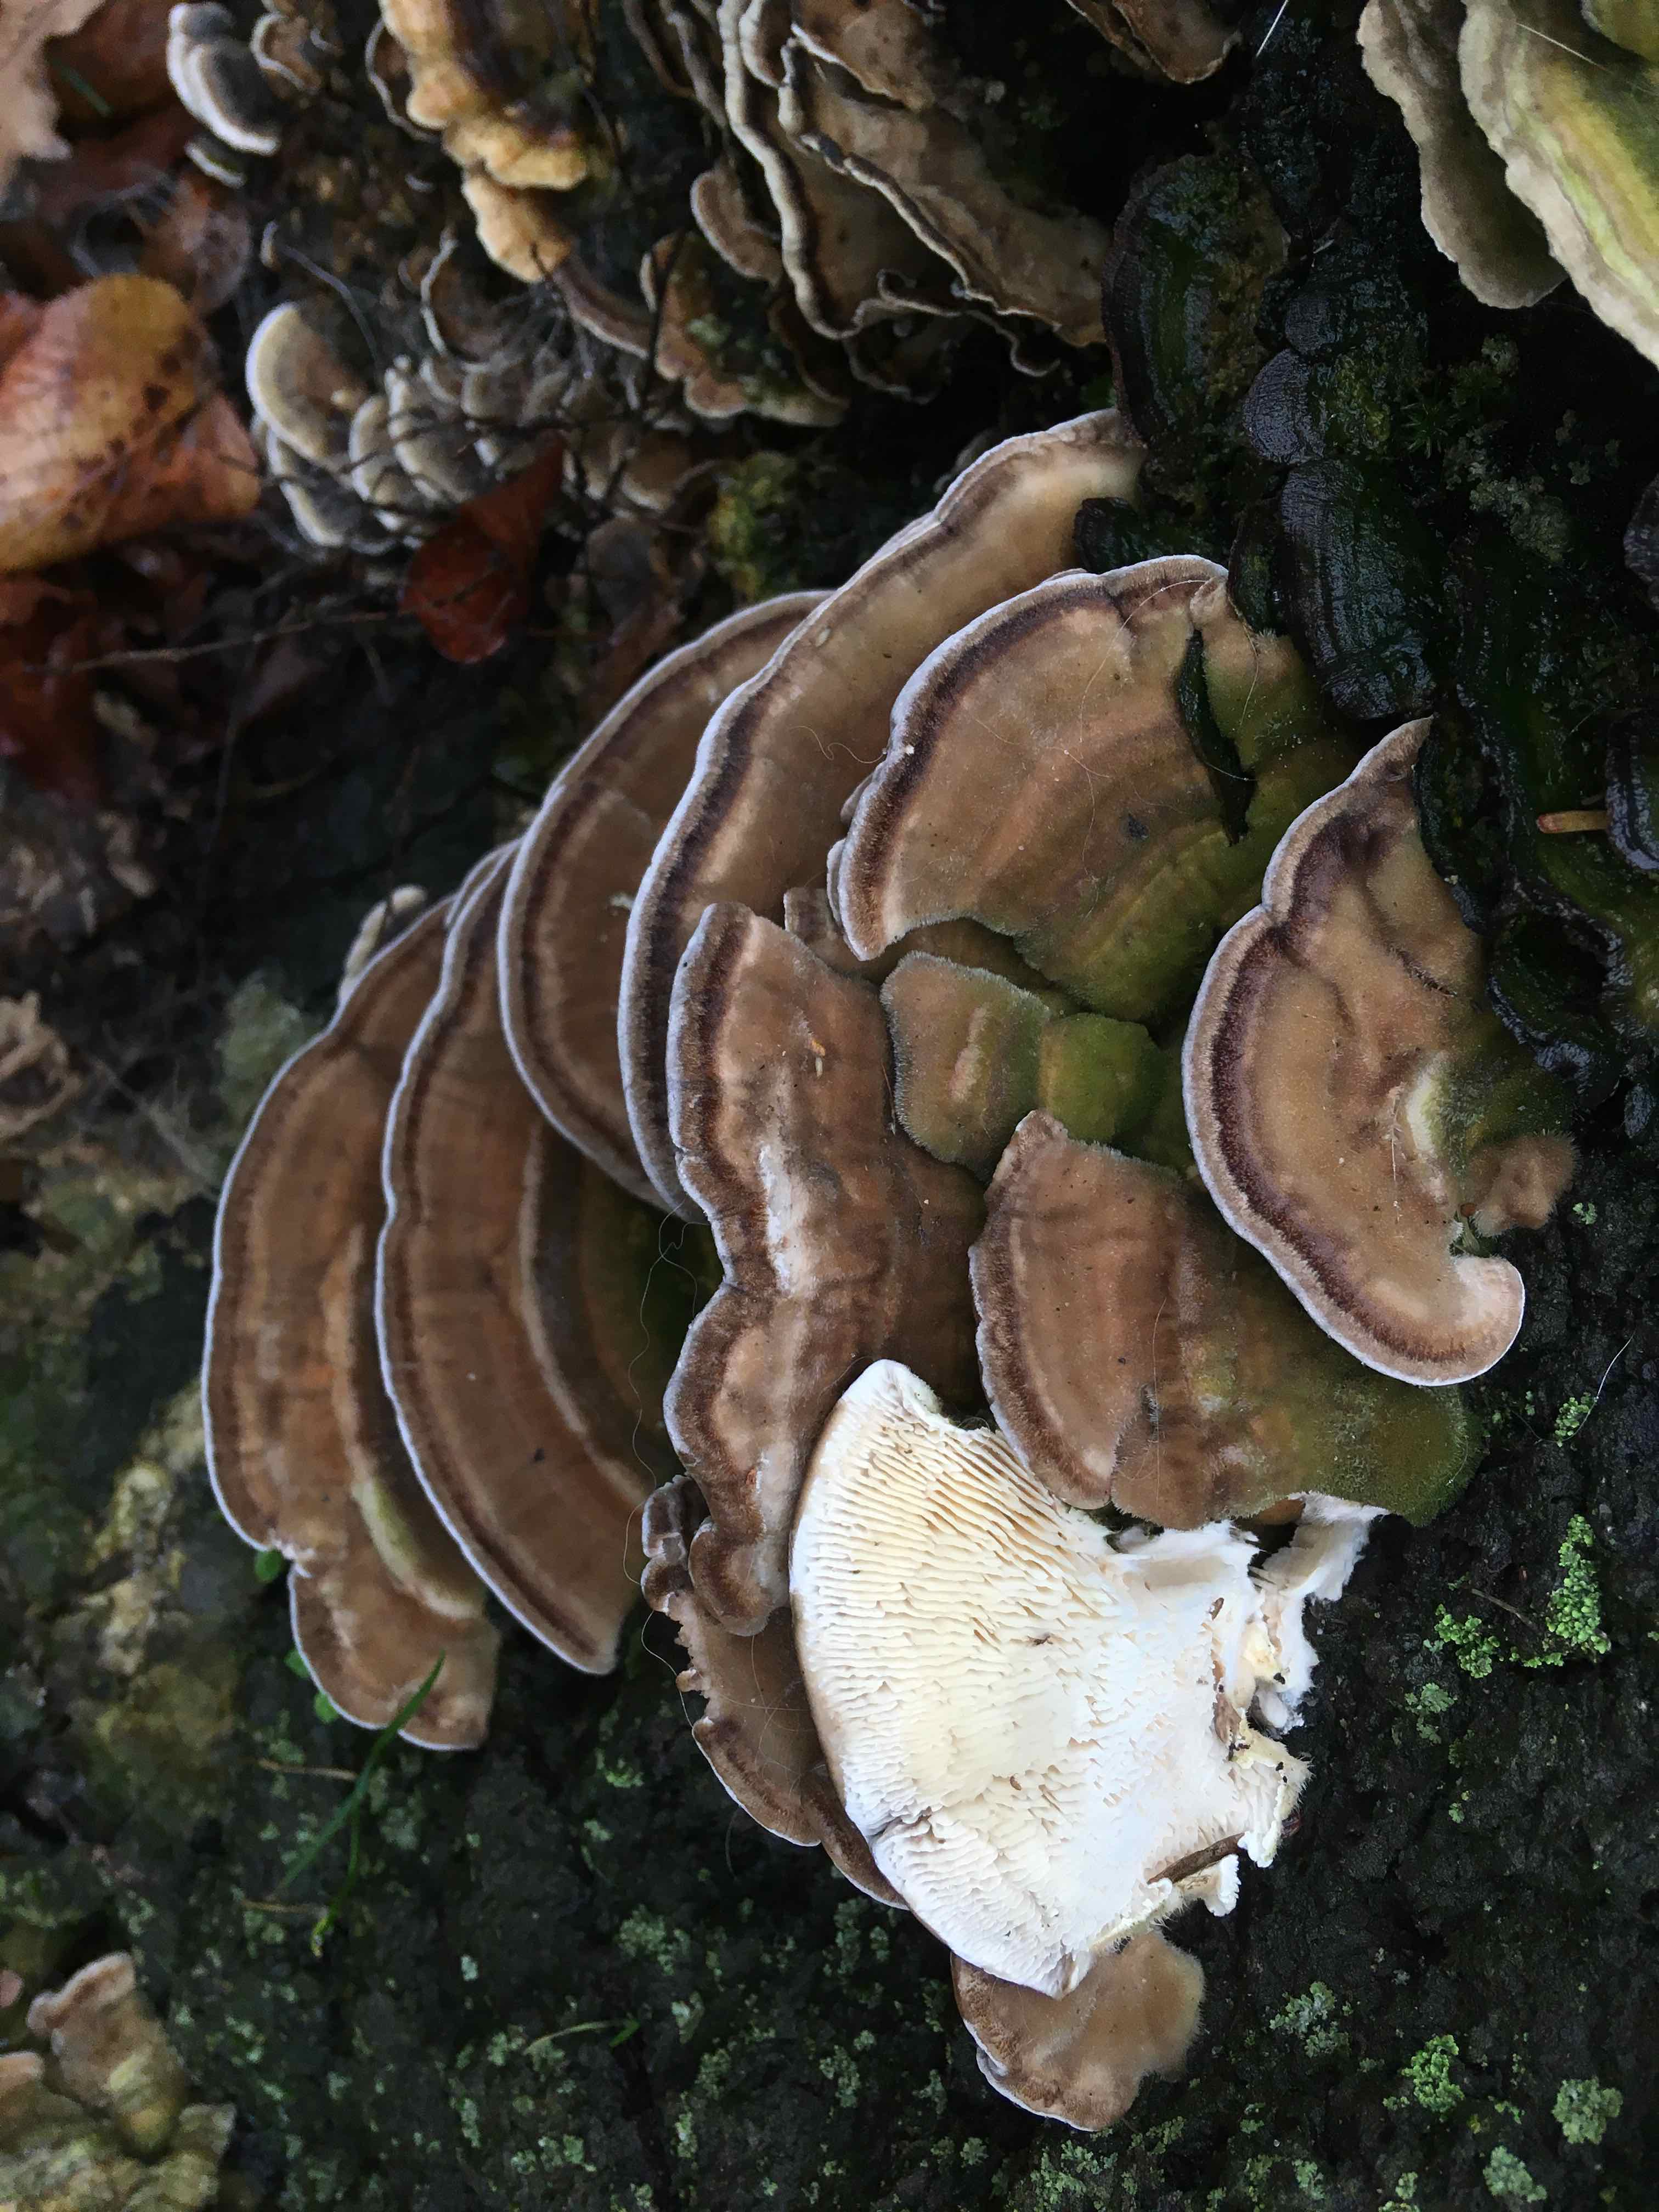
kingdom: Fungi
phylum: Basidiomycota
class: Agaricomycetes
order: Polyporales
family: Polyporaceae
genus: Lenzites
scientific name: Lenzites betulinus
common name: birke-læderporesvamp
